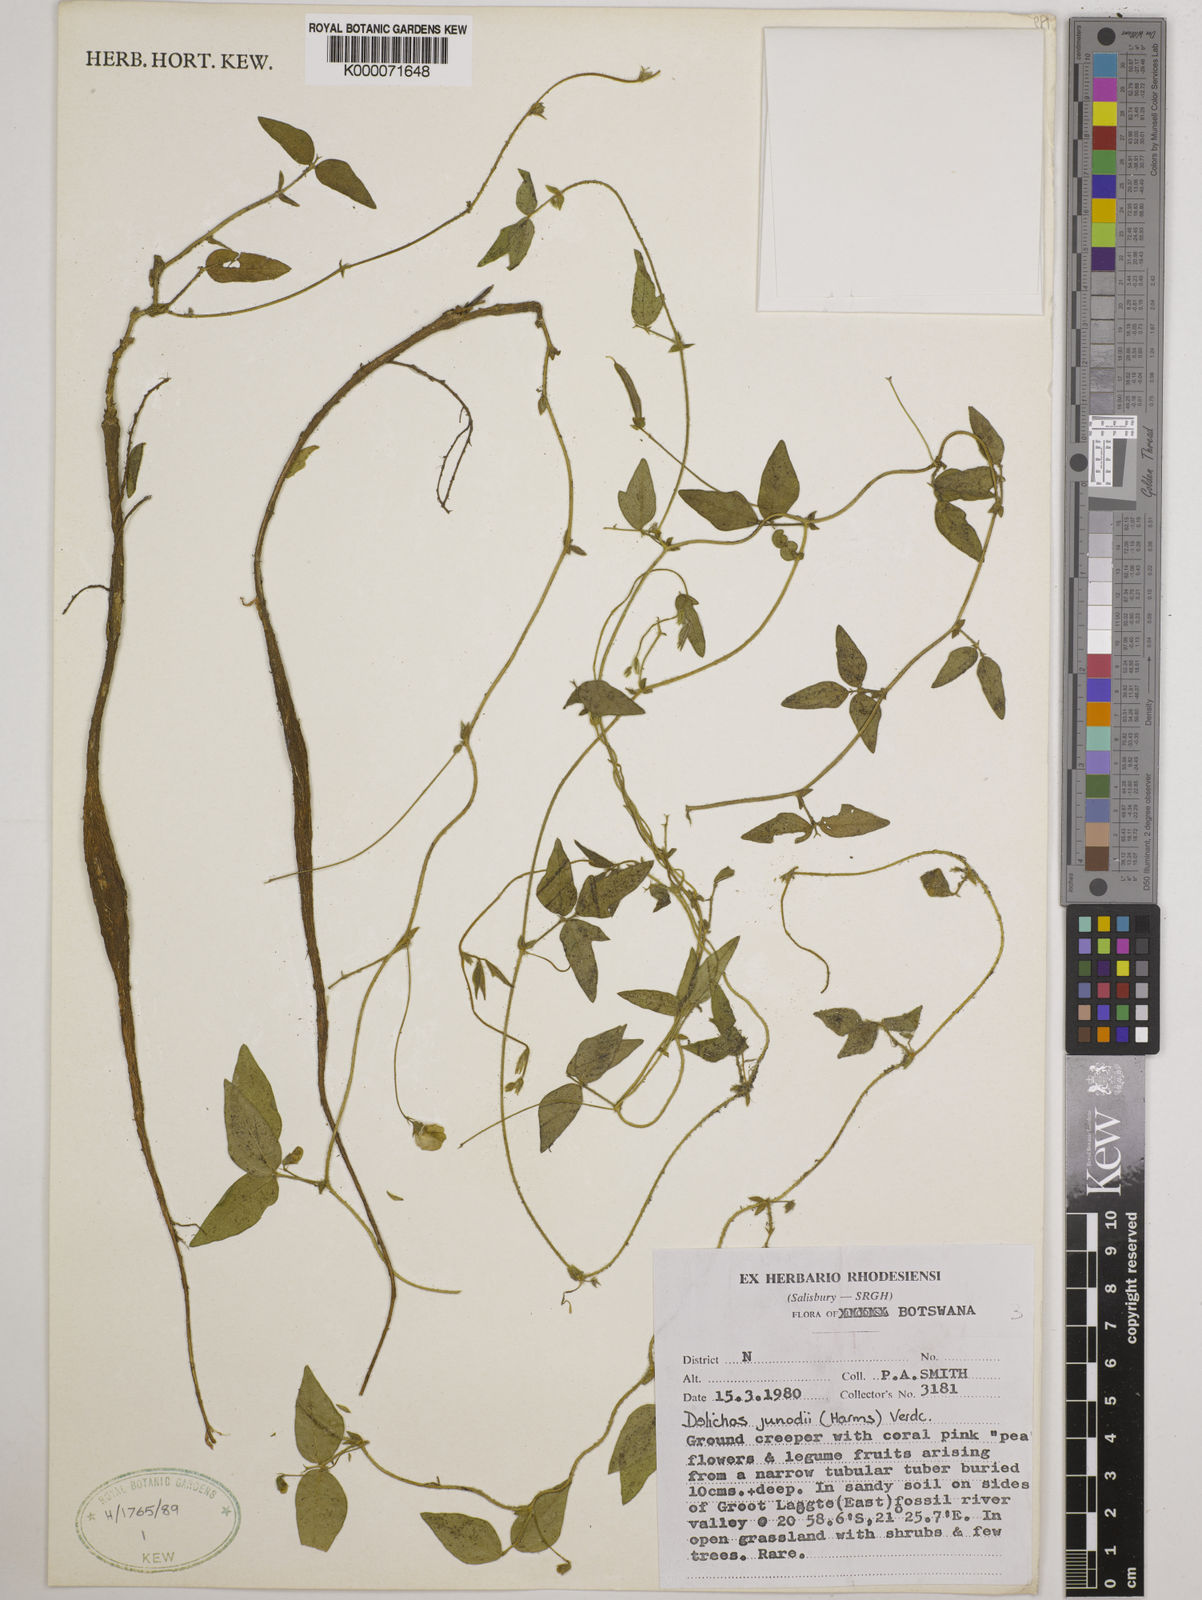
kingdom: Plantae
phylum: Tracheophyta
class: Magnoliopsida
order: Fabales
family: Fabaceae
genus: Dolichos
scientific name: Dolichos junodii
